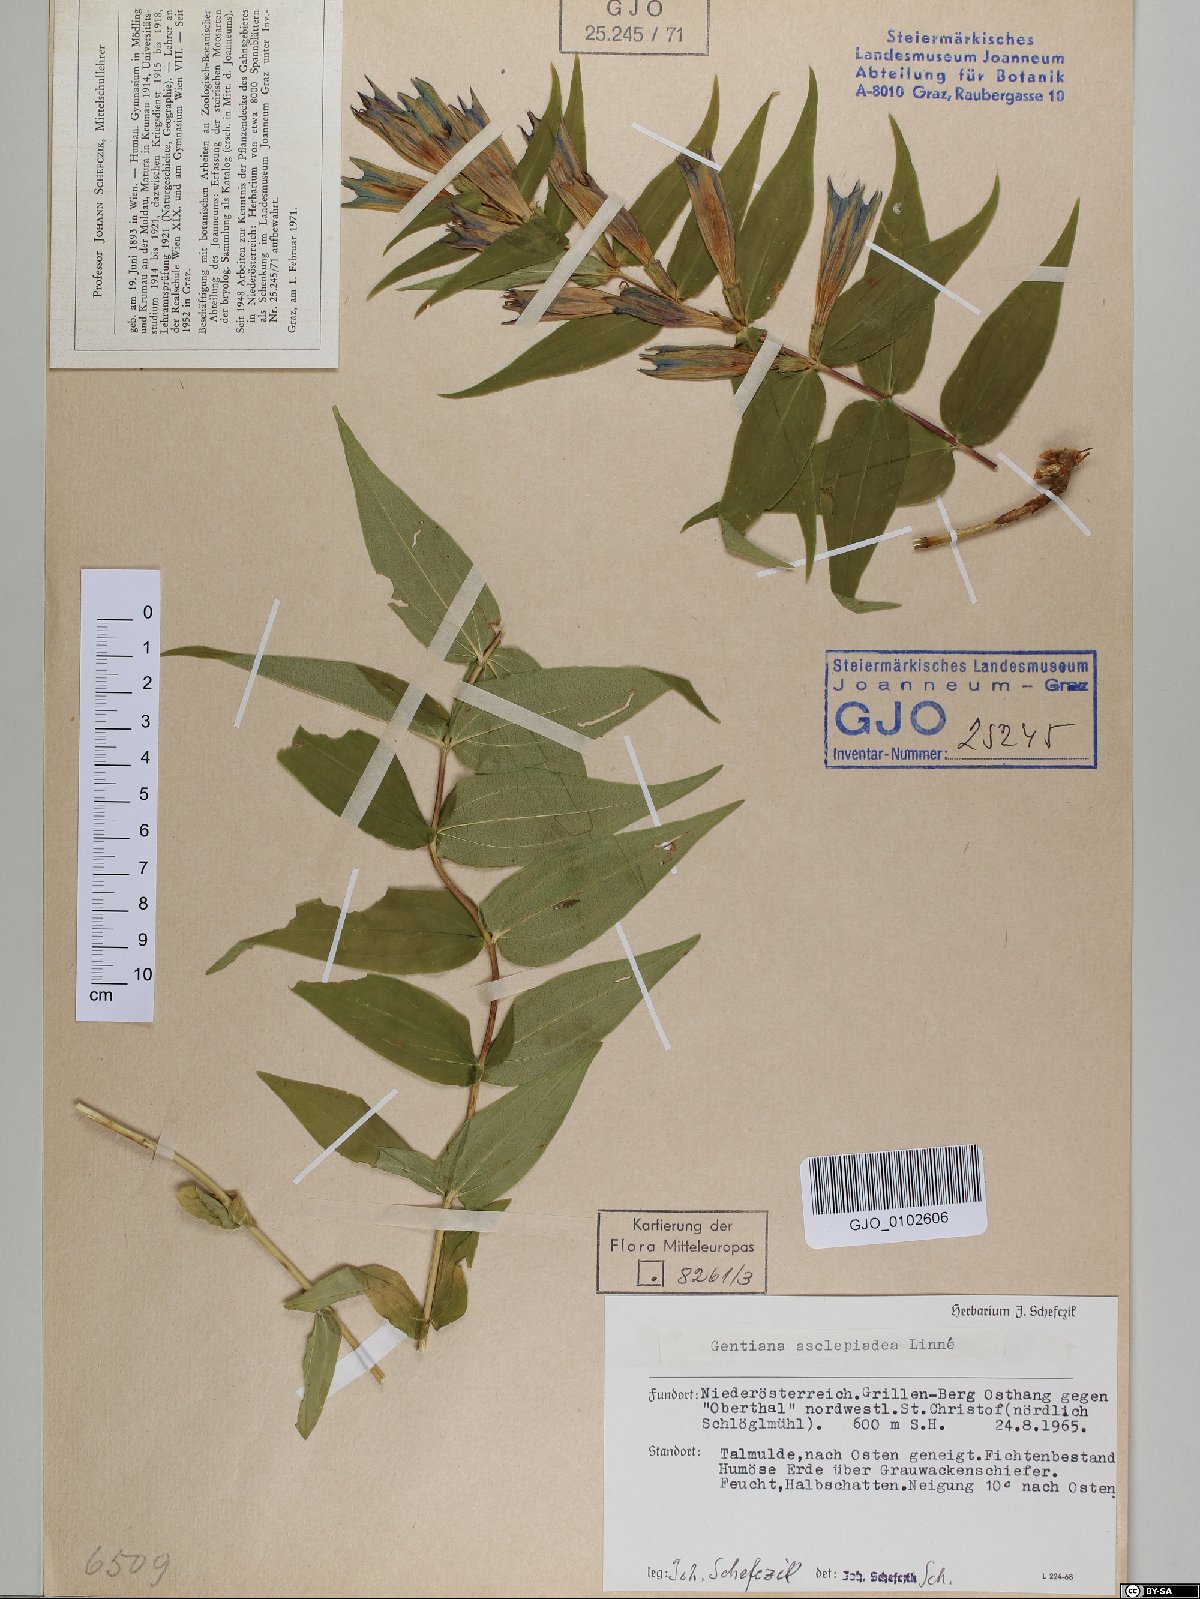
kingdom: Plantae
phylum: Tracheophyta
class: Magnoliopsida
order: Gentianales
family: Gentianaceae
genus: Gentiana
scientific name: Gentiana asclepiadea
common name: Willow gentian
